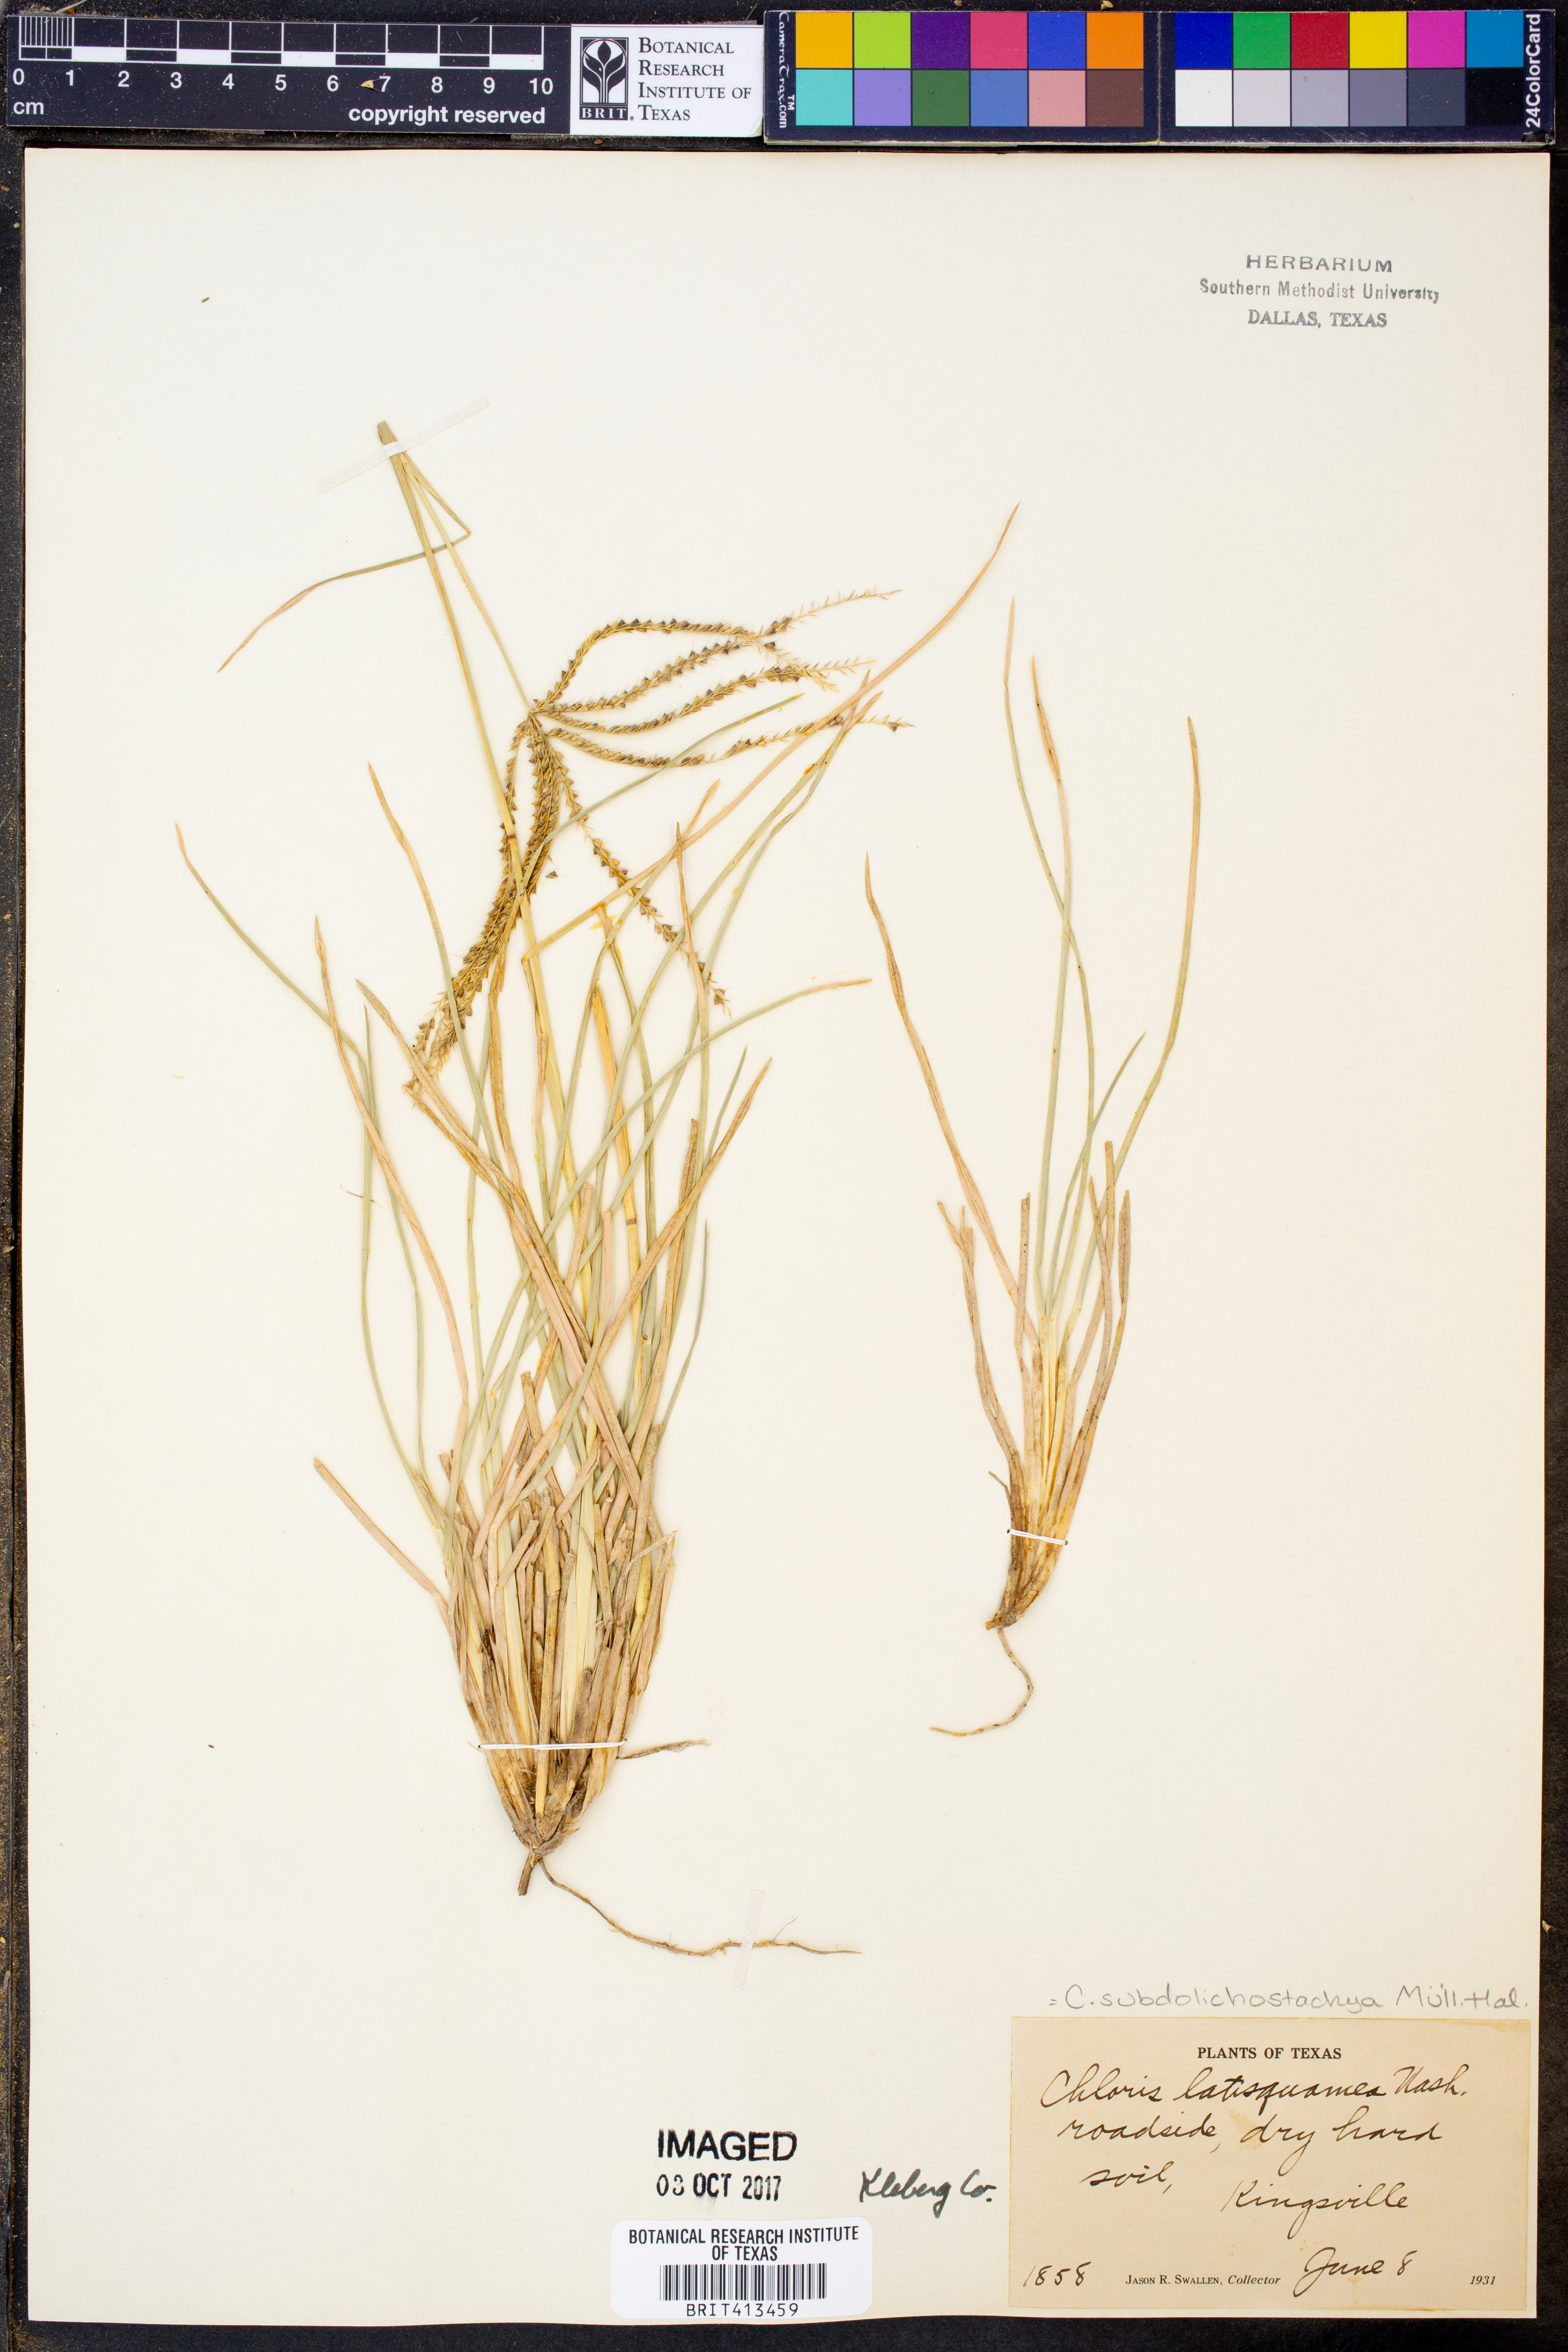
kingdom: Plantae
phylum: Tracheophyta
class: Liliopsida
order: Poales
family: Poaceae
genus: Chloris
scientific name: Chloris subdolichostachya
